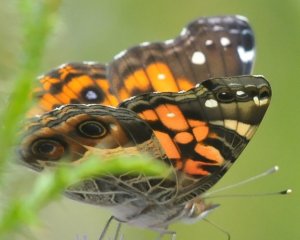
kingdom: Animalia
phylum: Arthropoda
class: Insecta
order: Lepidoptera
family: Nymphalidae
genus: Vanessa
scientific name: Vanessa virginiensis
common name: American Lady
